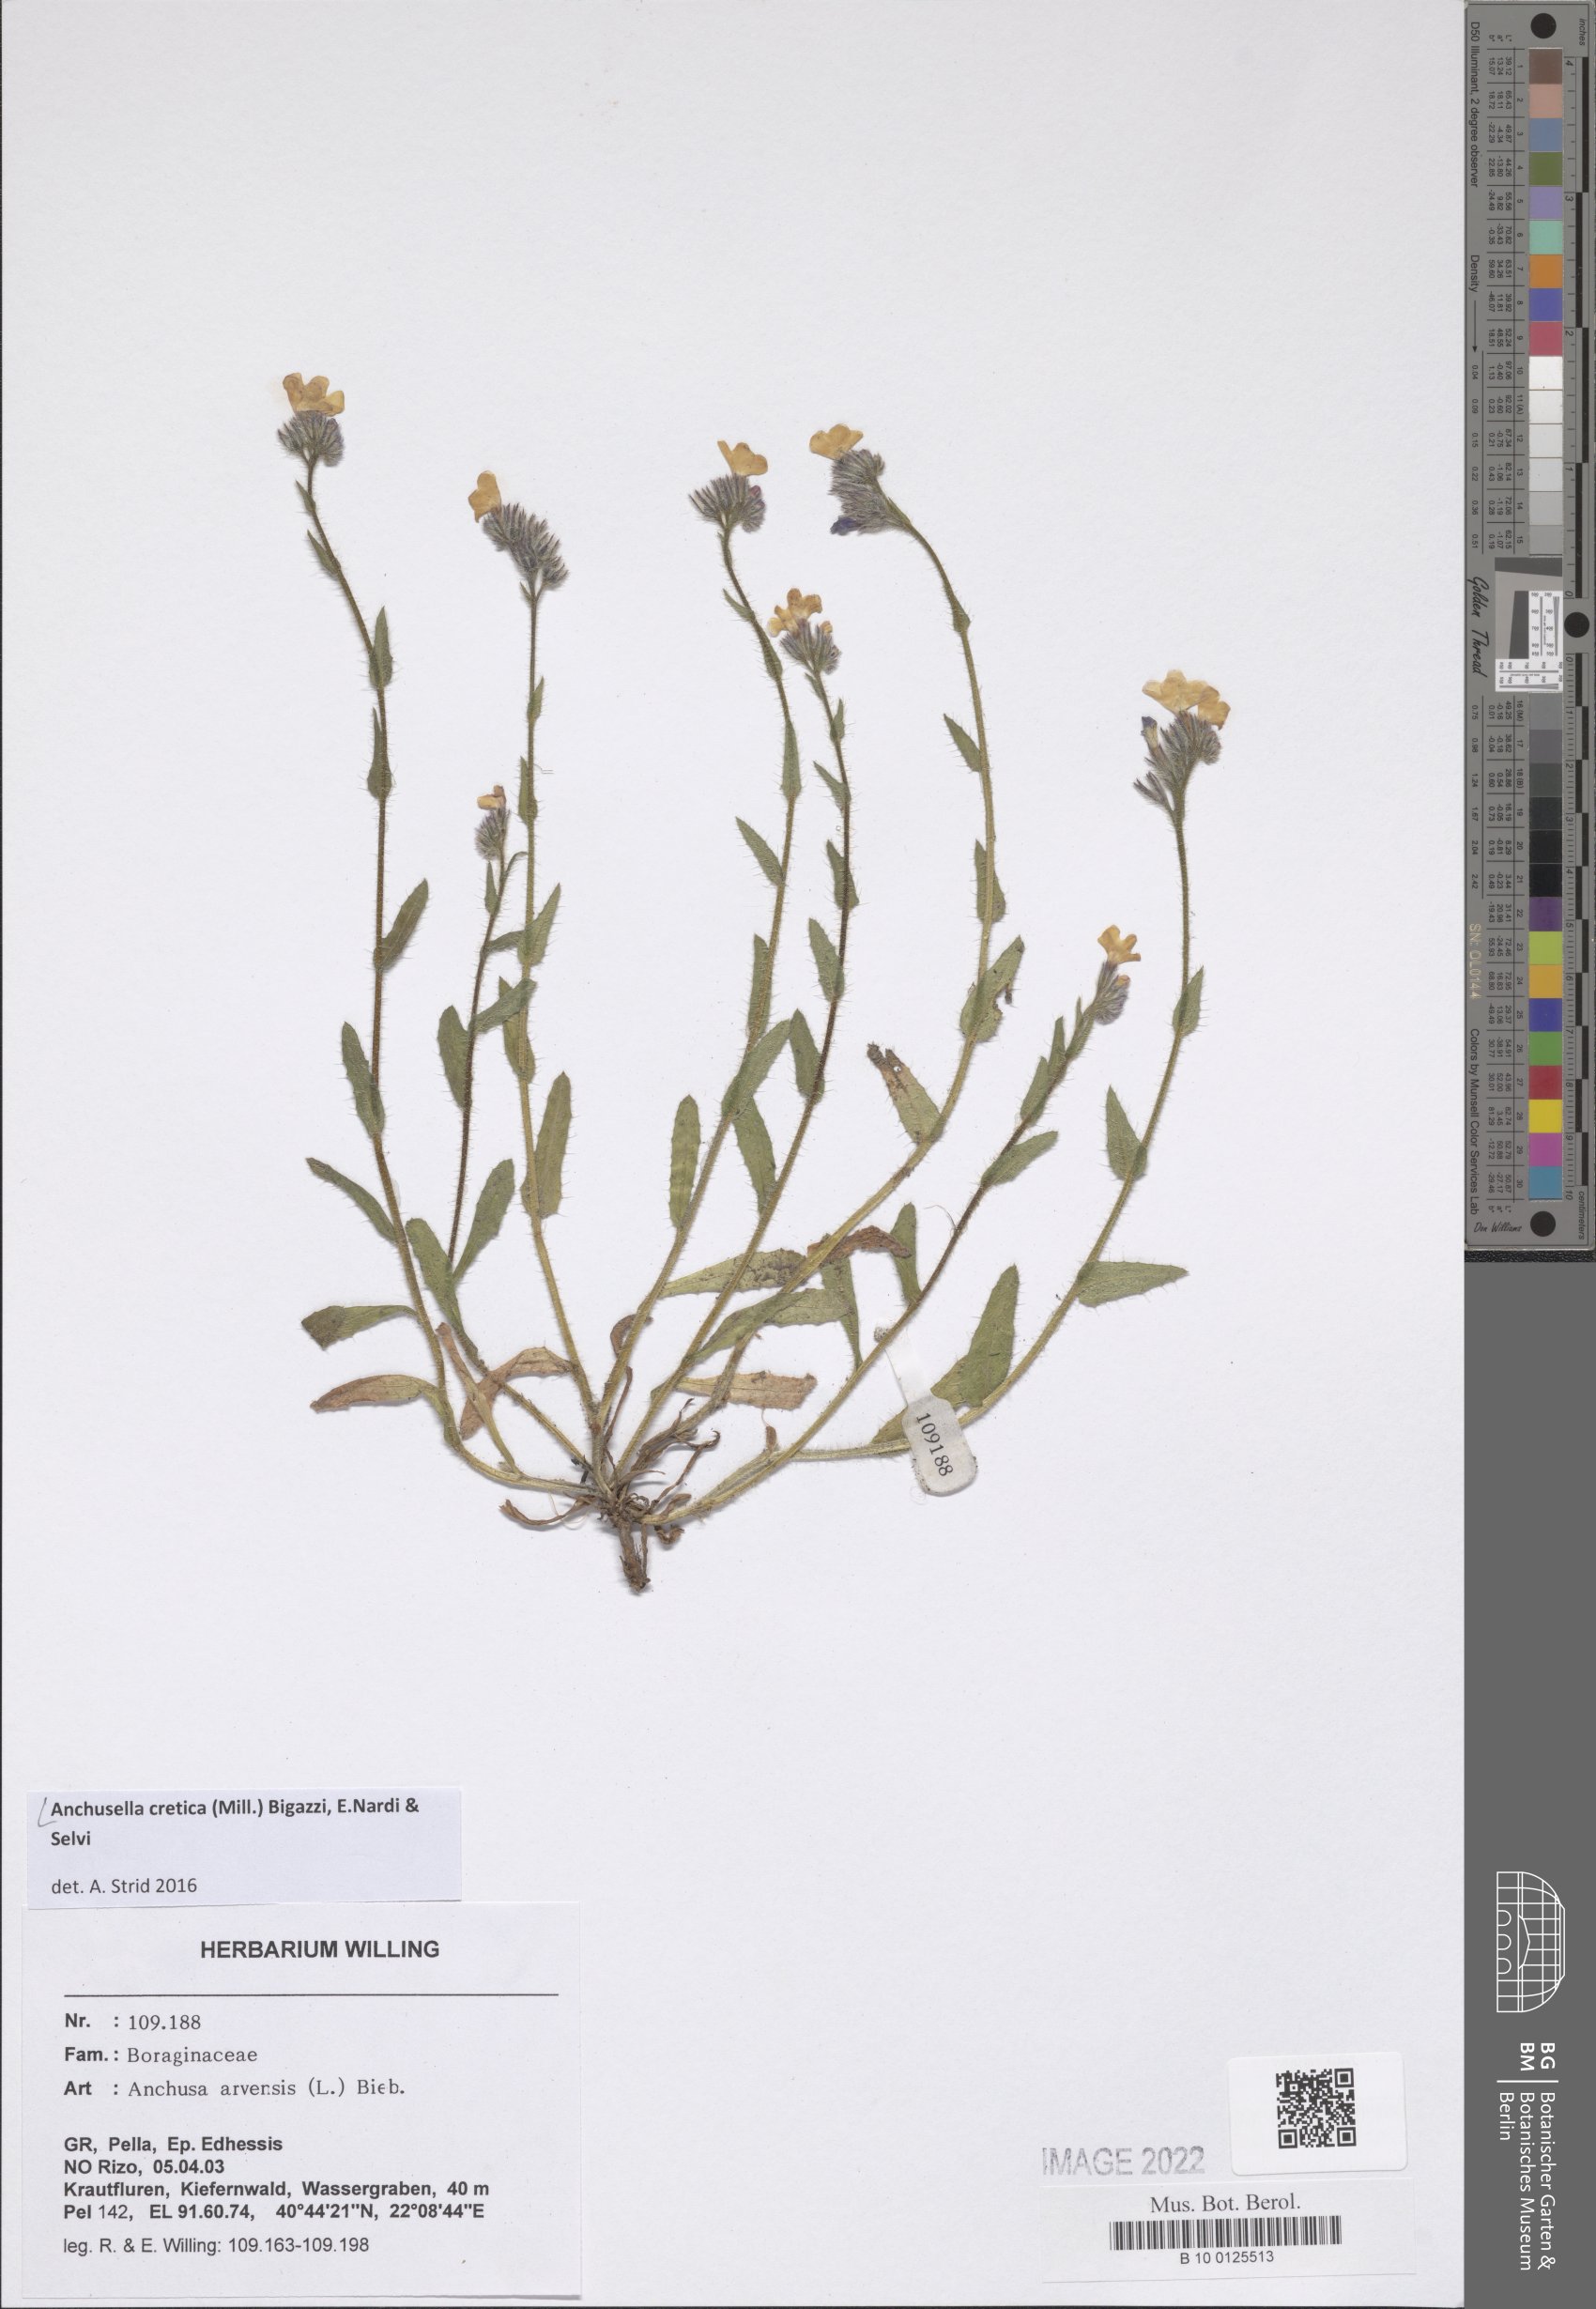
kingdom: Plantae
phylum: Tracheophyta
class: Magnoliopsida
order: Boraginales
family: Boraginaceae
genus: Anchusella
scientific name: Anchusella cretica
